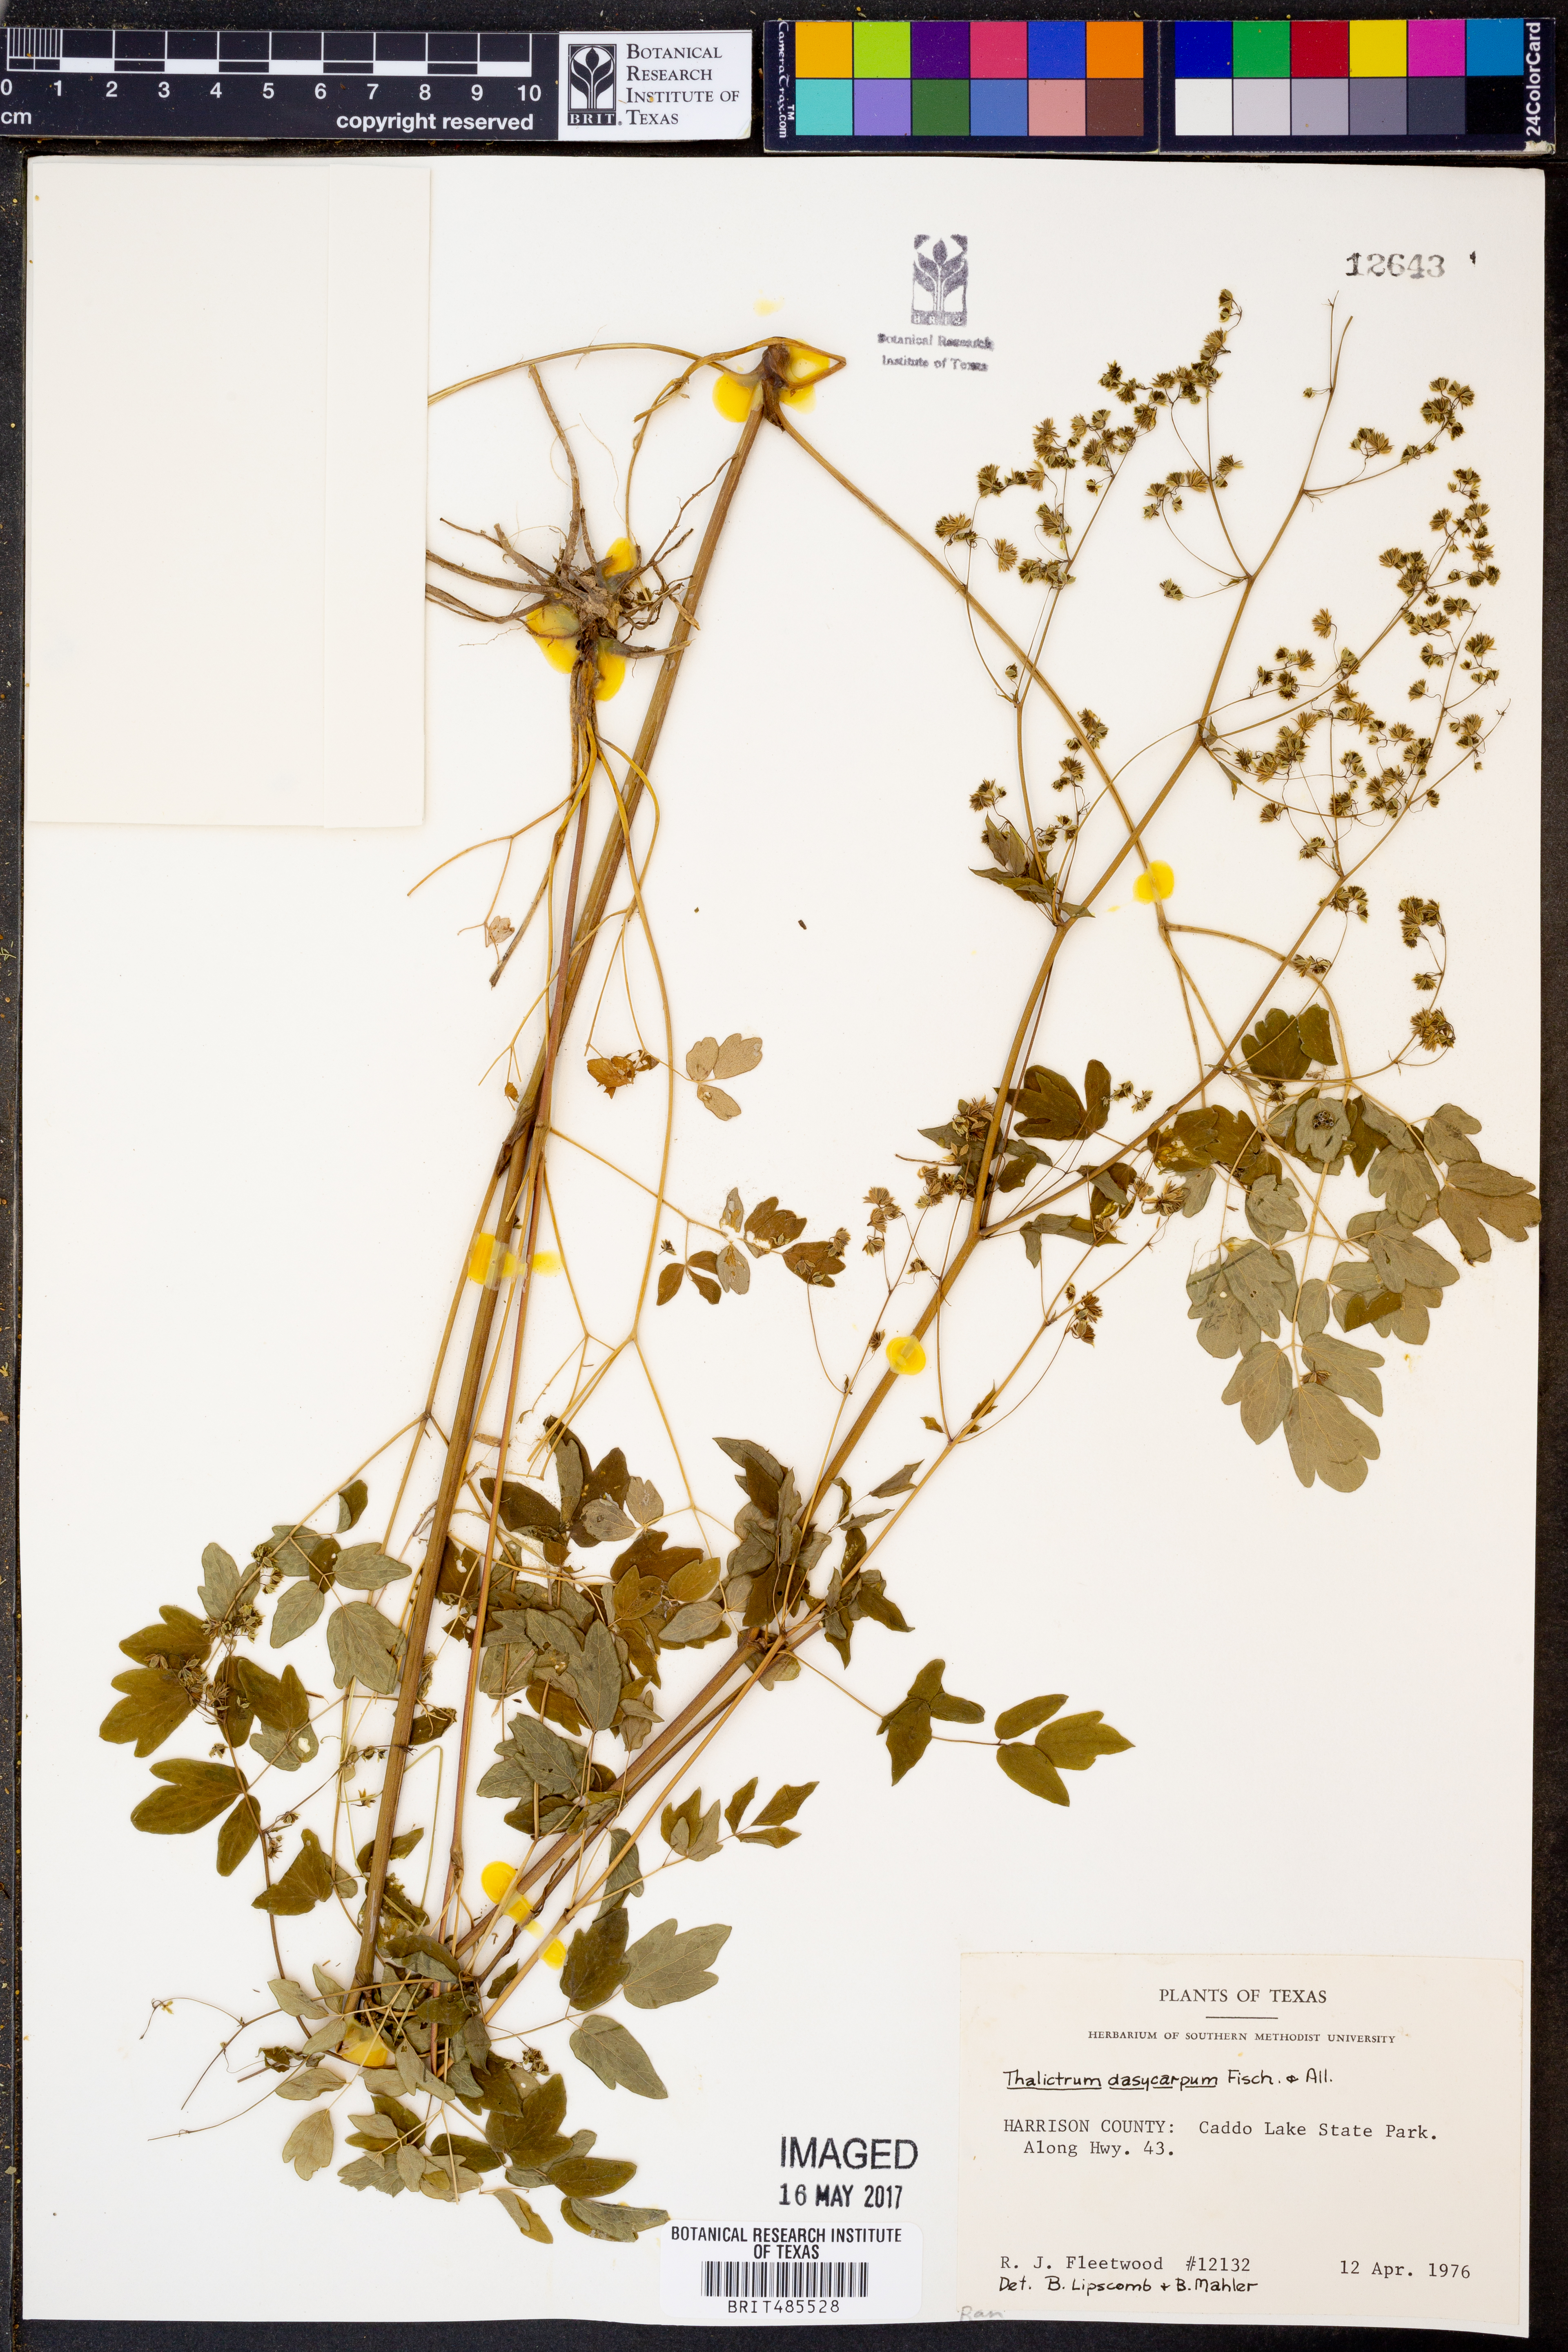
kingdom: Plantae
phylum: Tracheophyta
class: Magnoliopsida
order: Ranunculales
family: Ranunculaceae
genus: Thalictrum
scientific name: Thalictrum dasycarpum
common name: Purple meadow-rue
